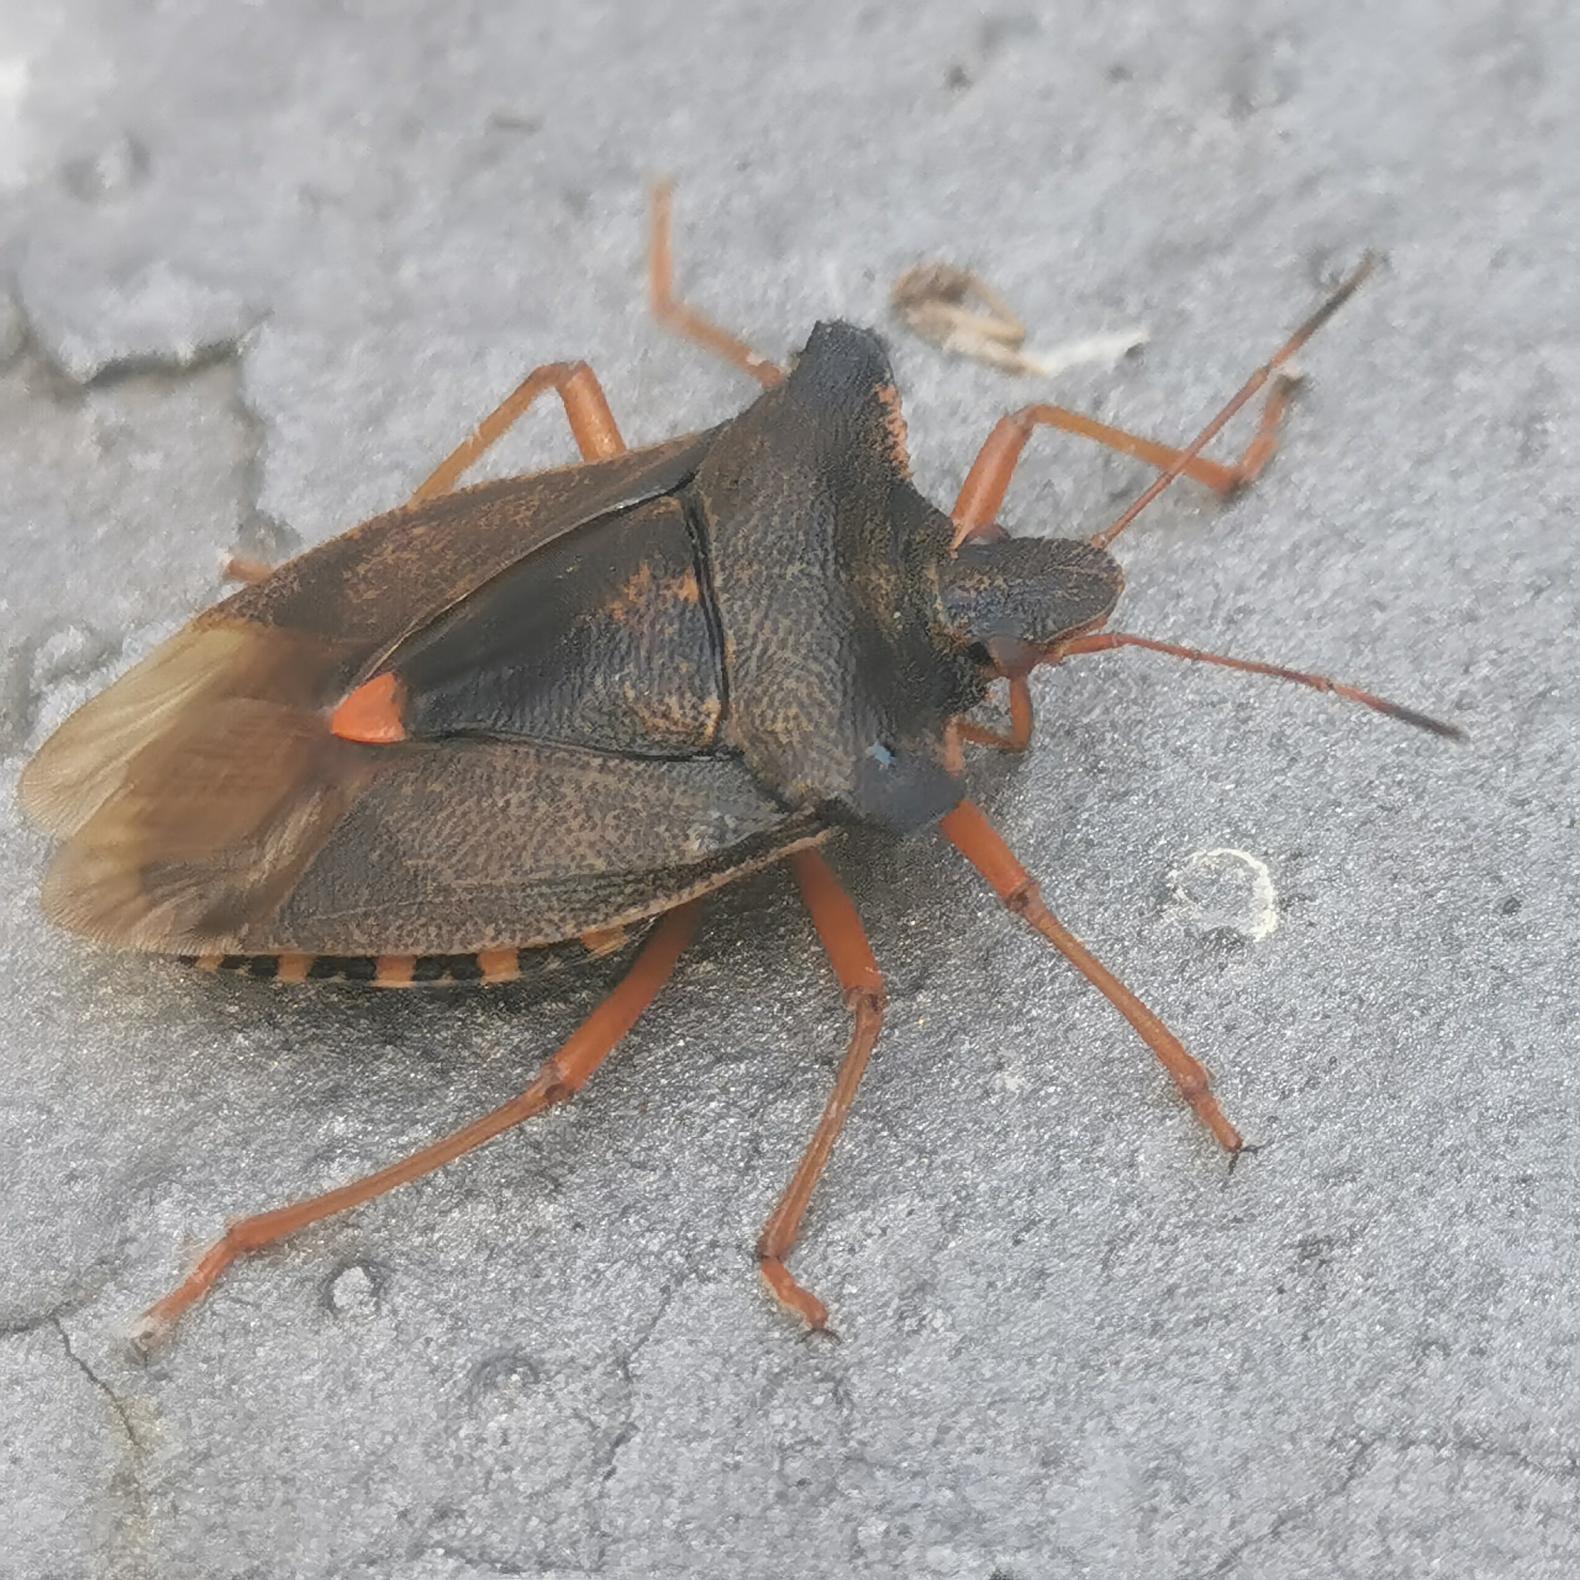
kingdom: Animalia
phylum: Arthropoda
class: Insecta
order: Hemiptera
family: Pentatomidae
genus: Pentatoma
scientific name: Pentatoma rufipes
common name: Rødbenet bredtæge
